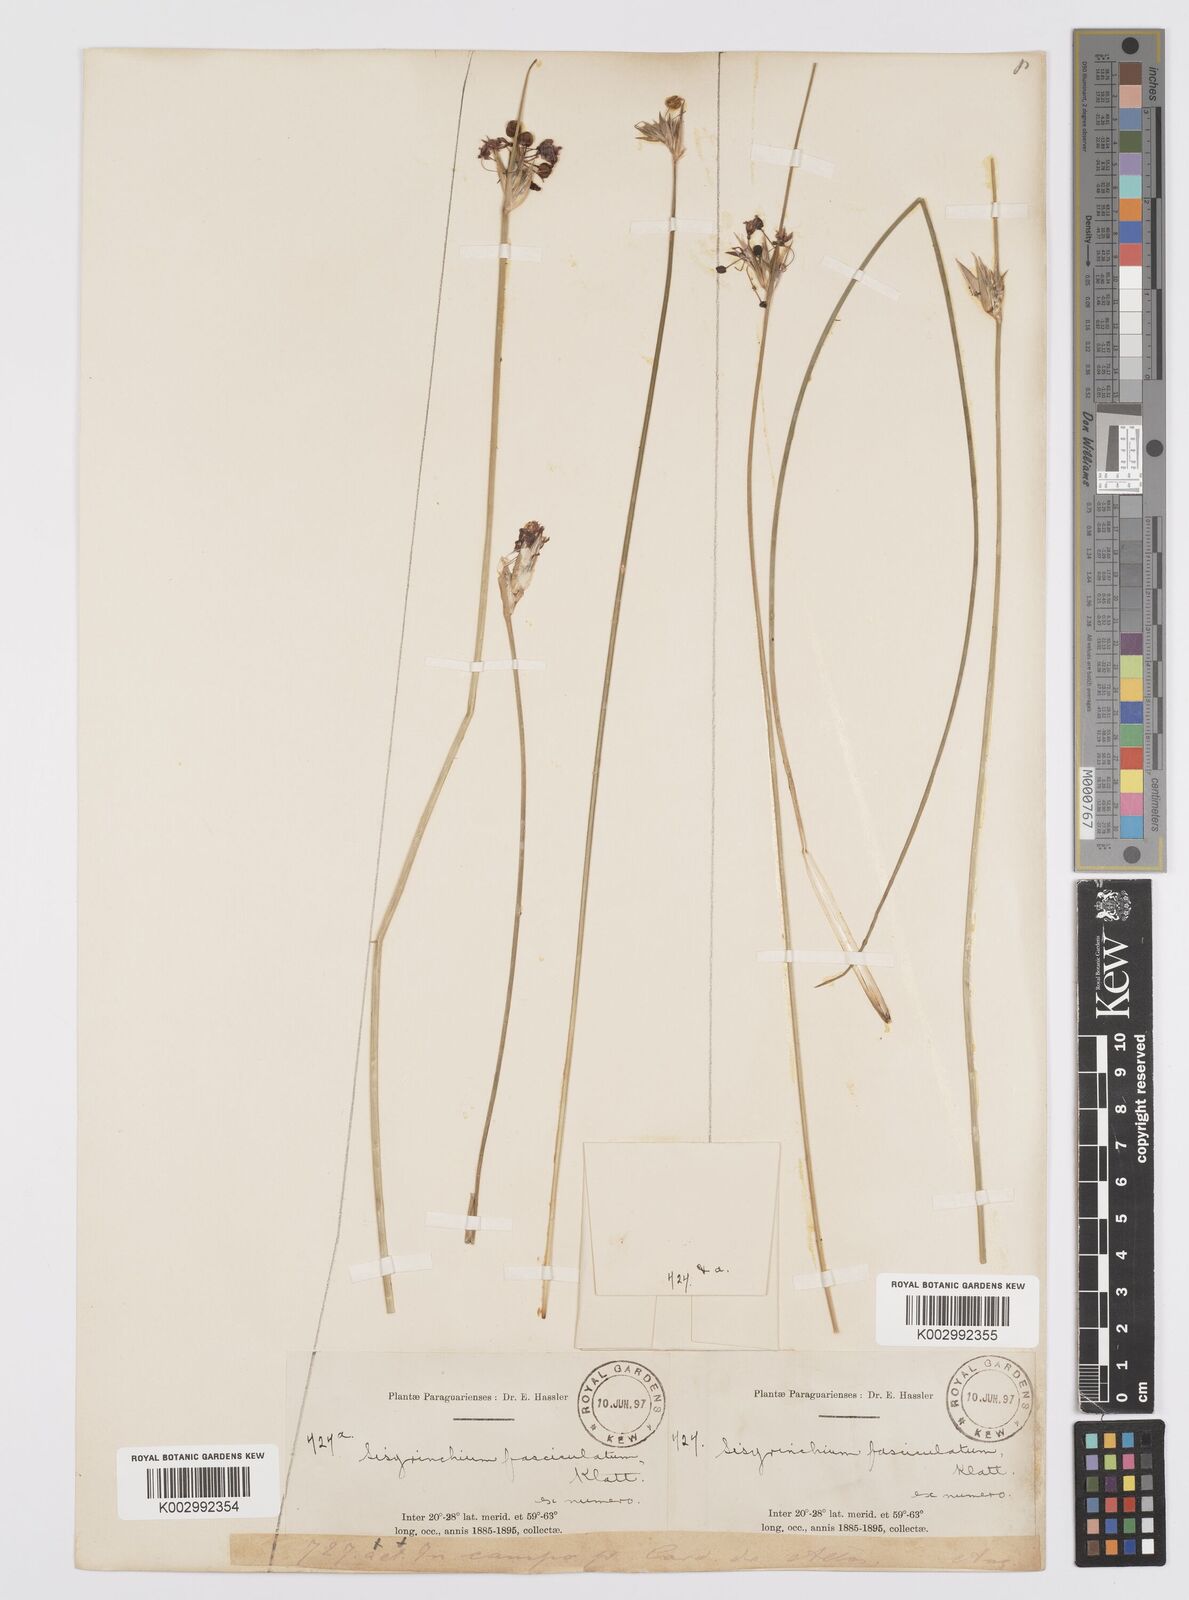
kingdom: Plantae
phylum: Tracheophyta
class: Liliopsida
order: Asparagales
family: Iridaceae
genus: Sisyrinchium
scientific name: Sisyrinchium fasciculatum
